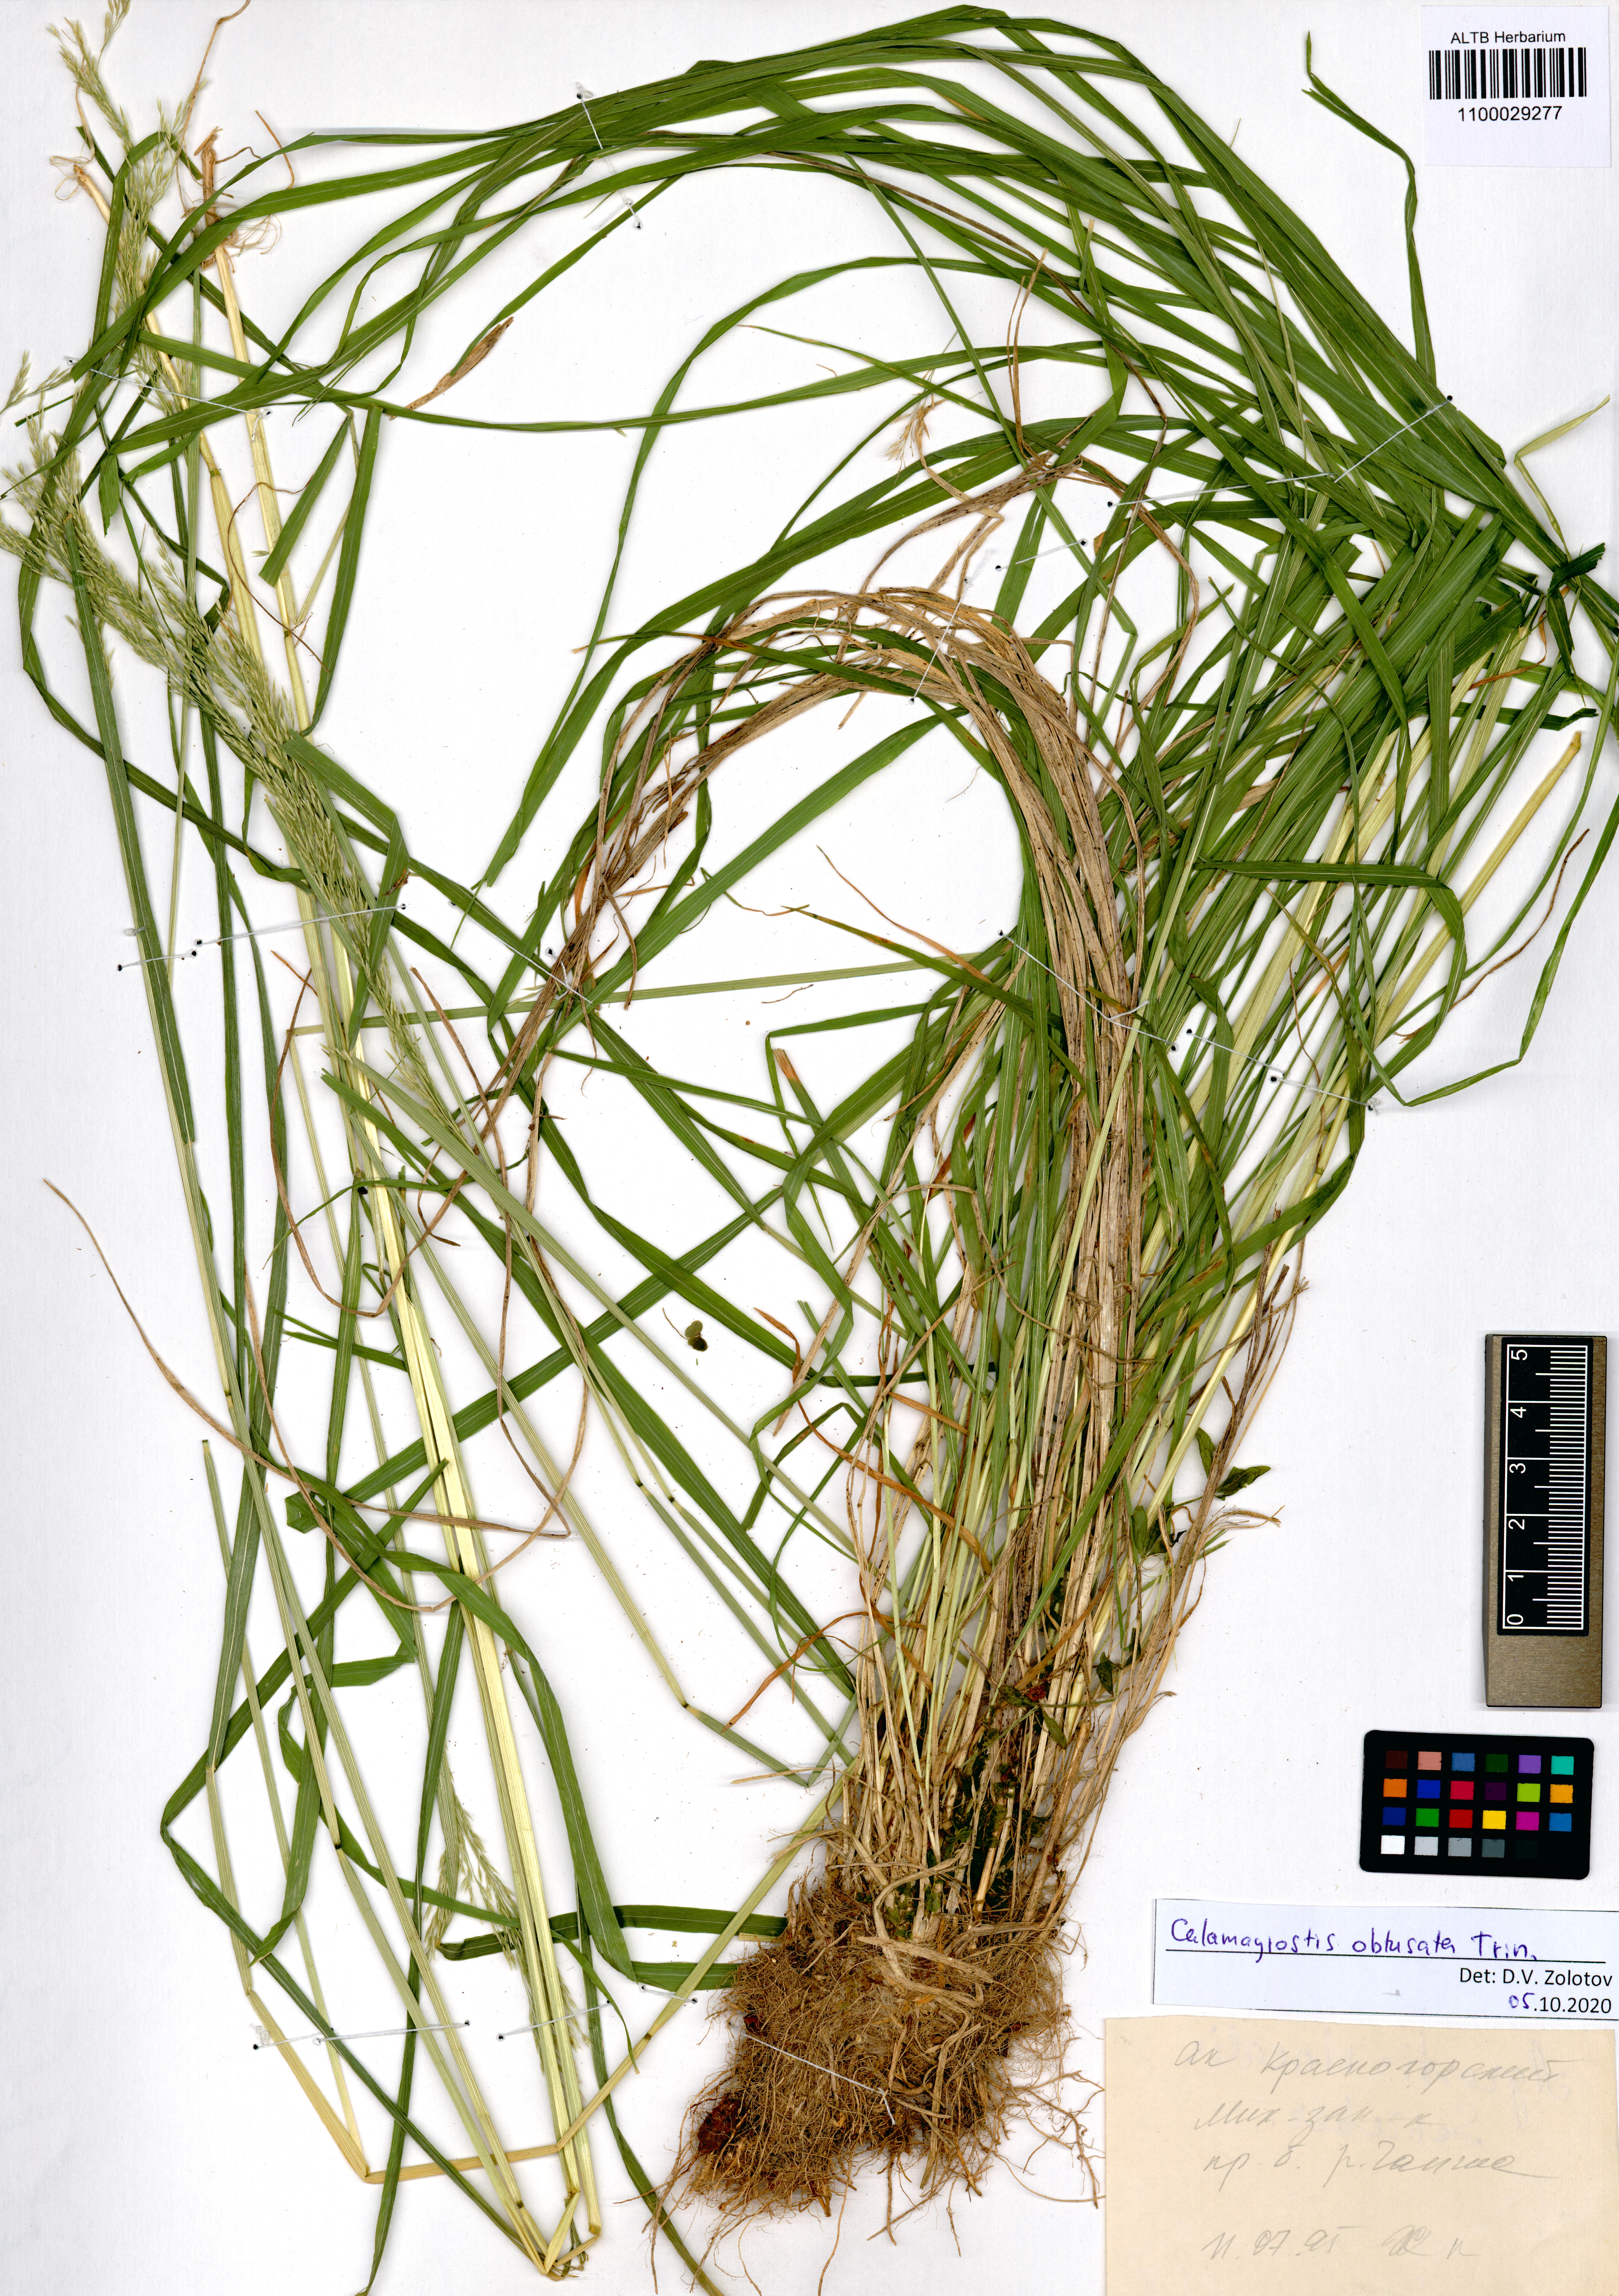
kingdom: Plantae
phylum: Tracheophyta
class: Liliopsida
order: Poales
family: Poaceae
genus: Calamagrostis
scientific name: Calamagrostis obtusata
